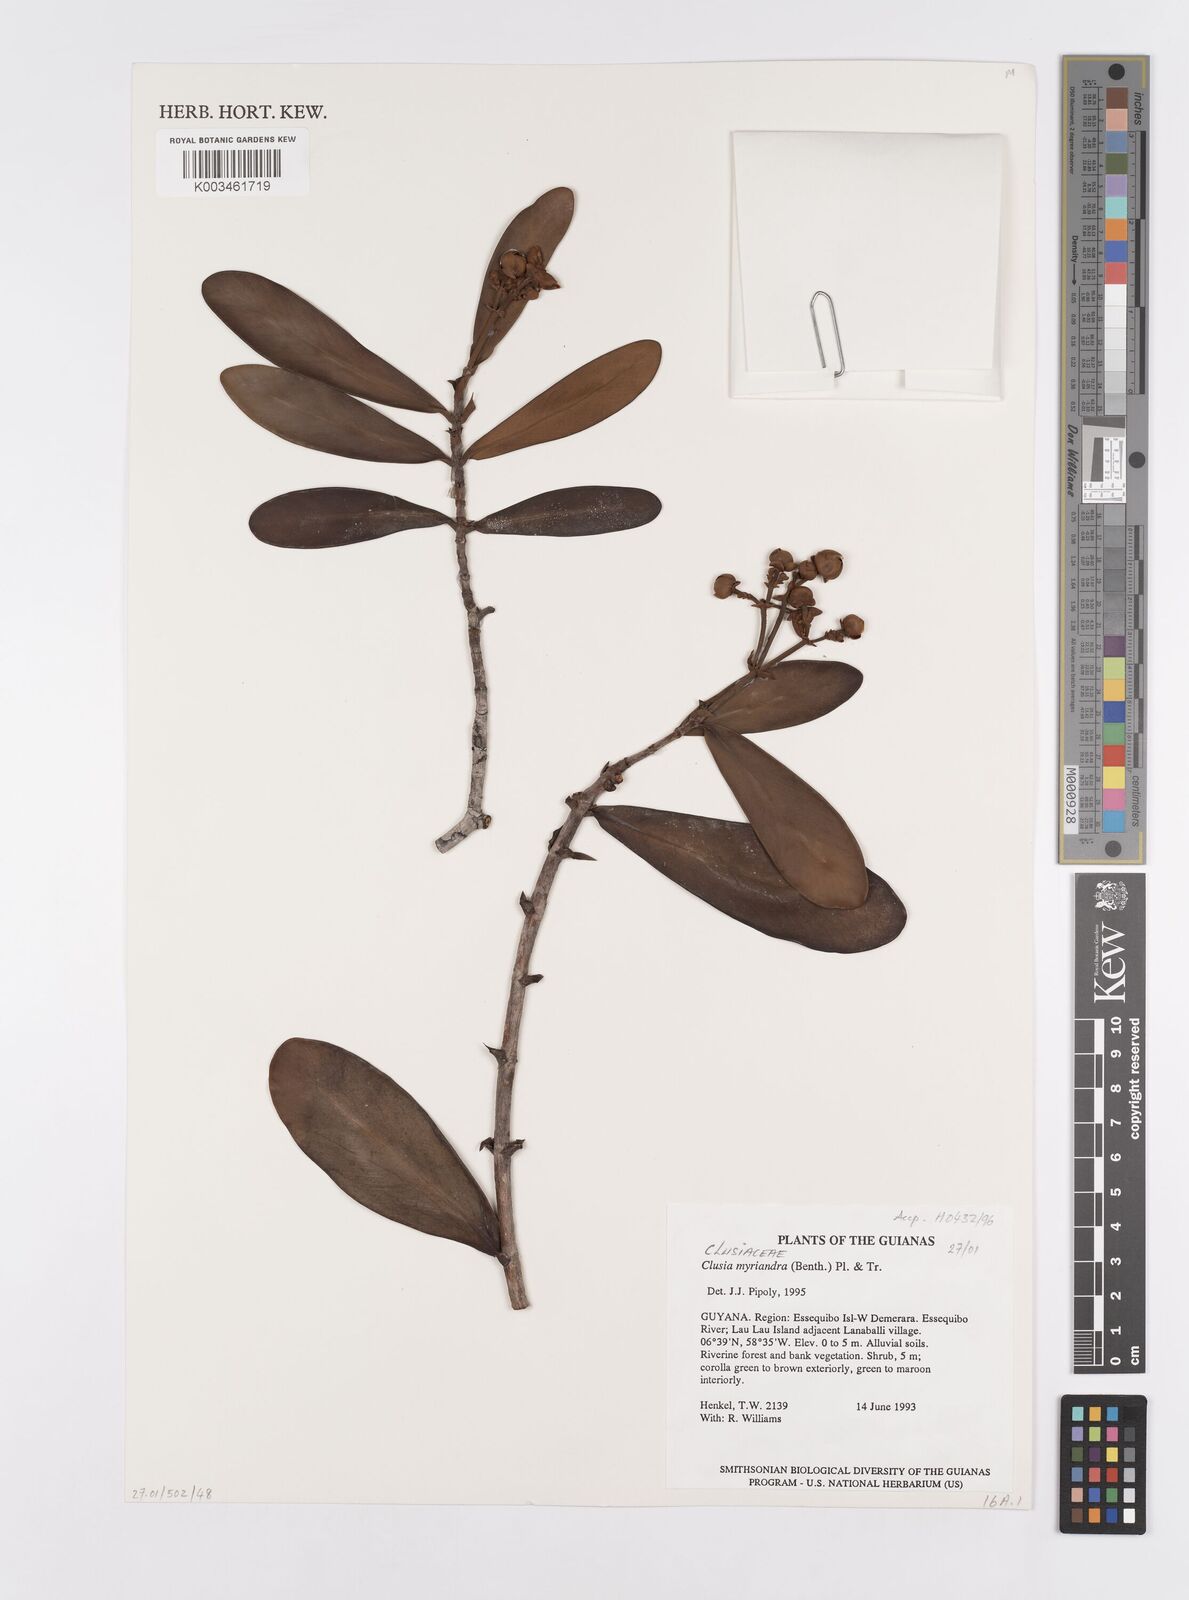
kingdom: Plantae
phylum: Tracheophyta
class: Magnoliopsida
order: Malpighiales
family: Clusiaceae
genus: Clusia
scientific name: Clusia myriandra
